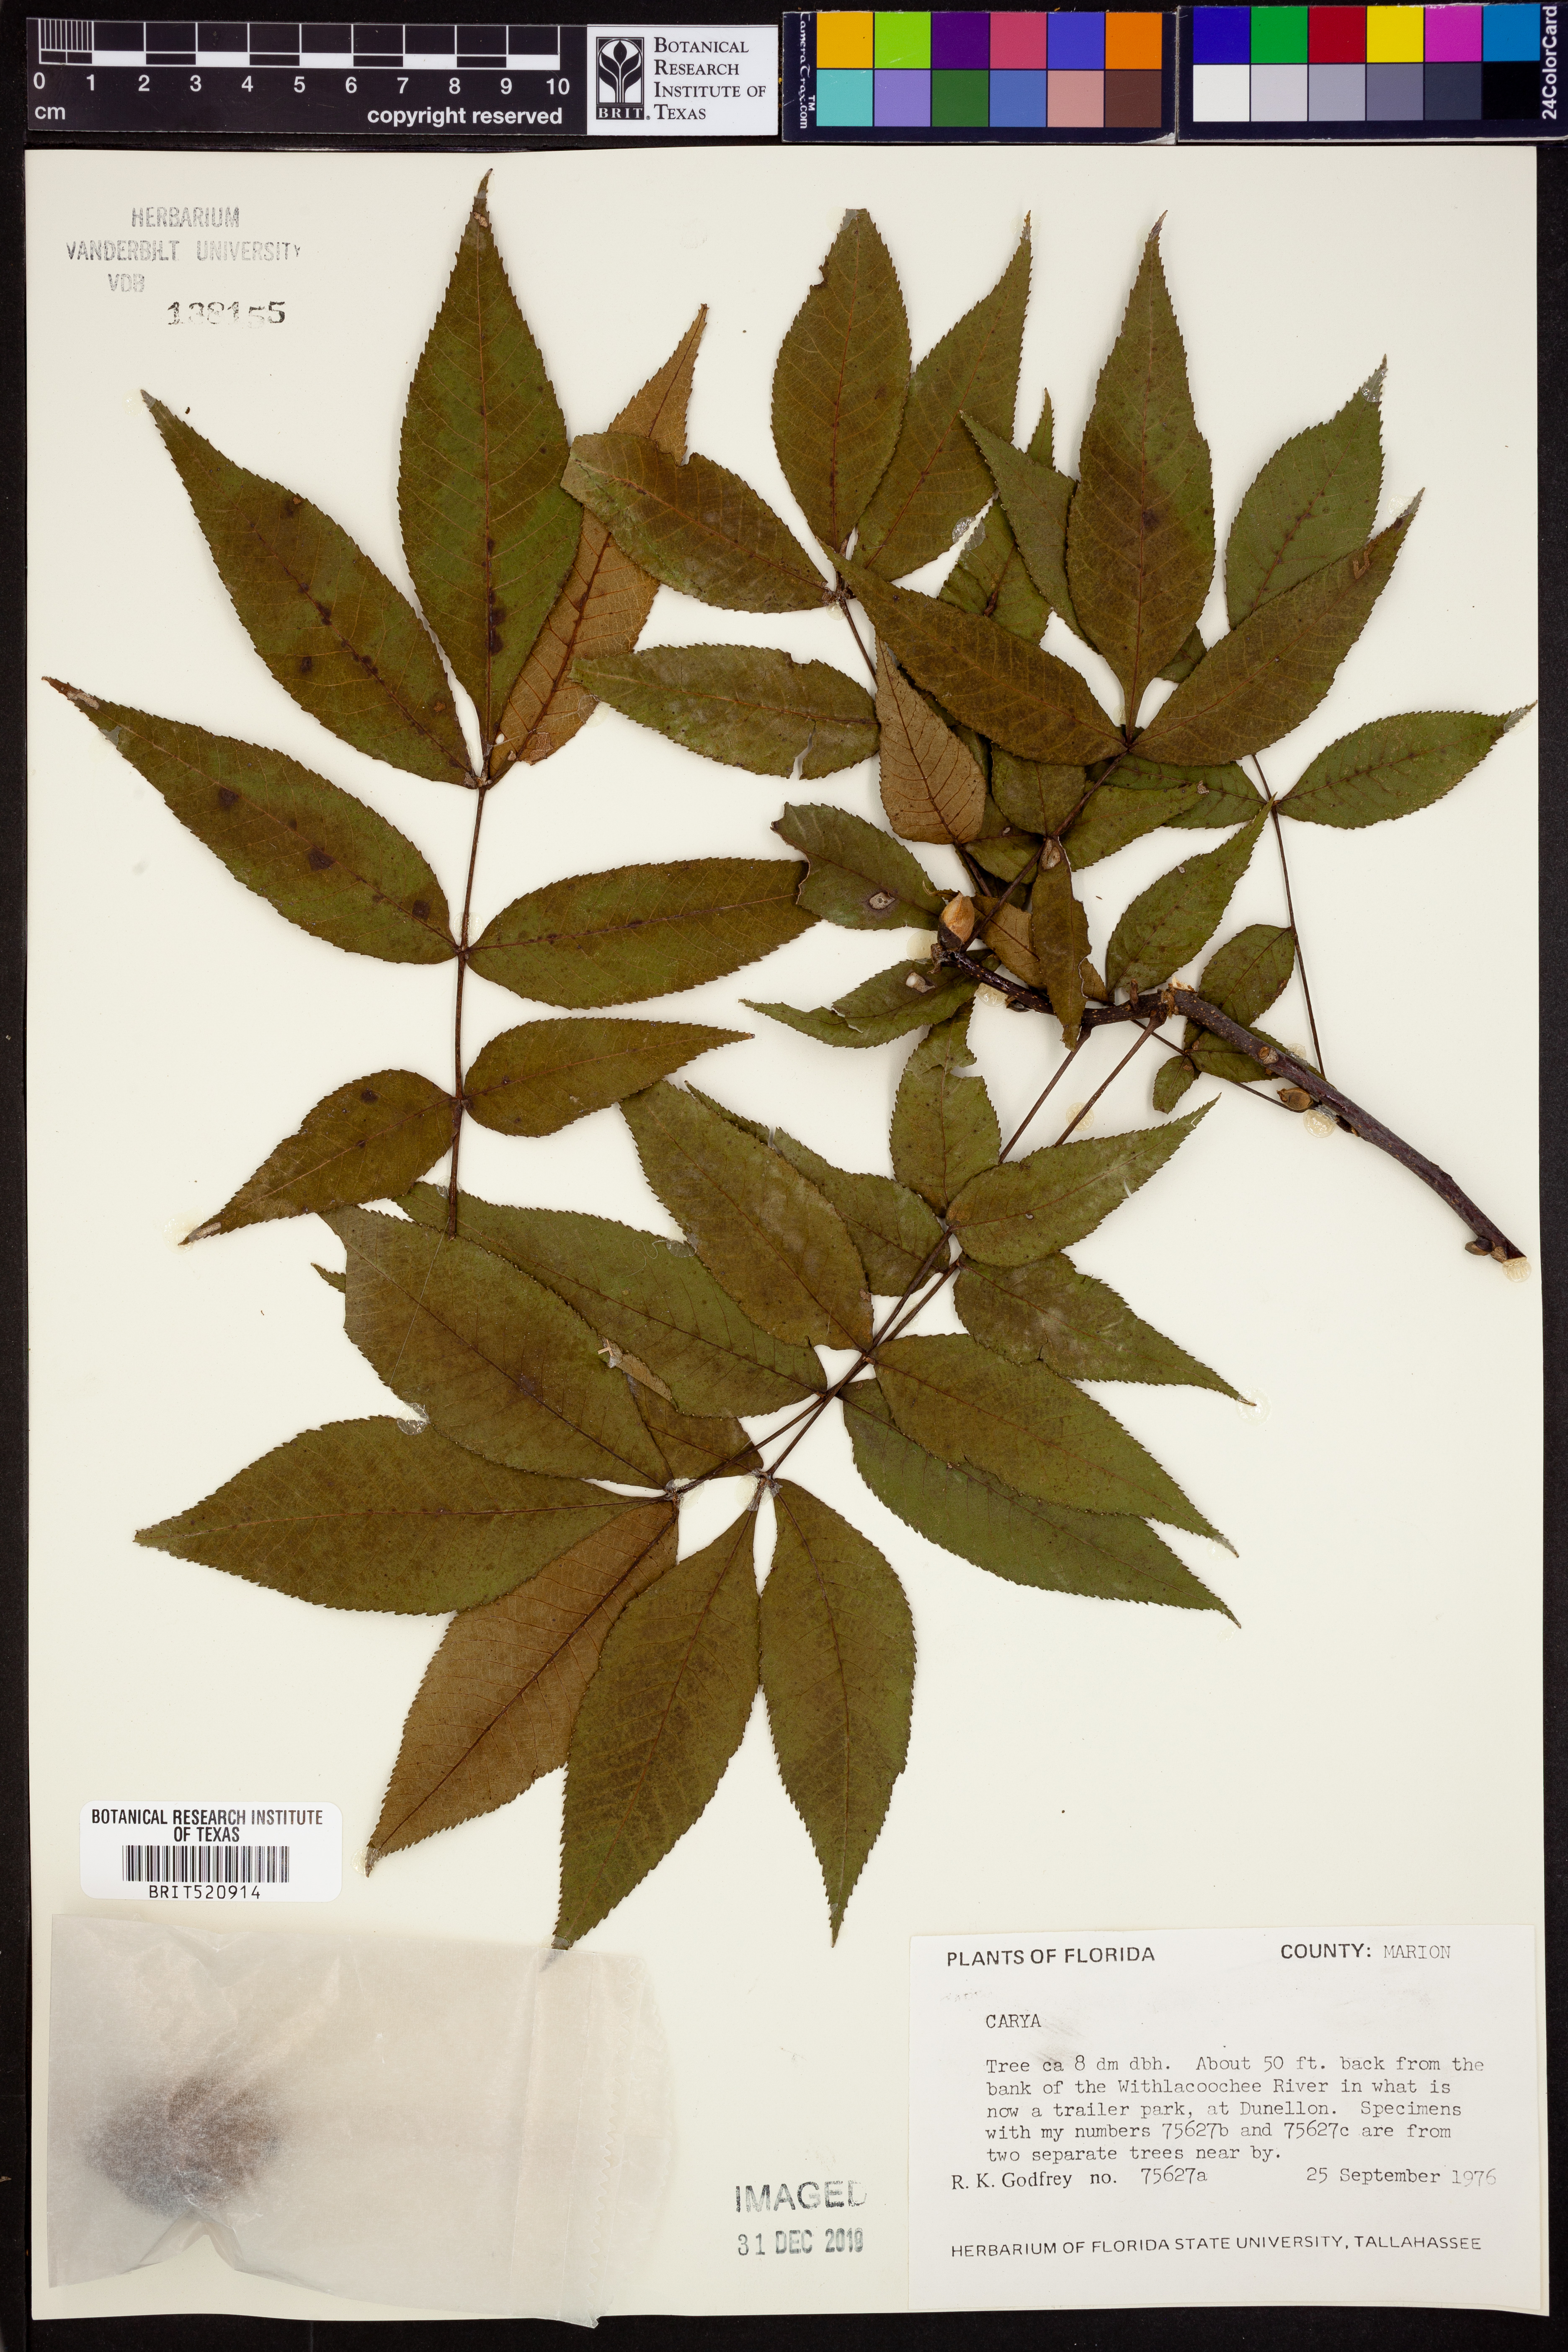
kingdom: Plantae
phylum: Tracheophyta
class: Magnoliopsida
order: Fagales
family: Juglandaceae
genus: Carya
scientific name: Carya
